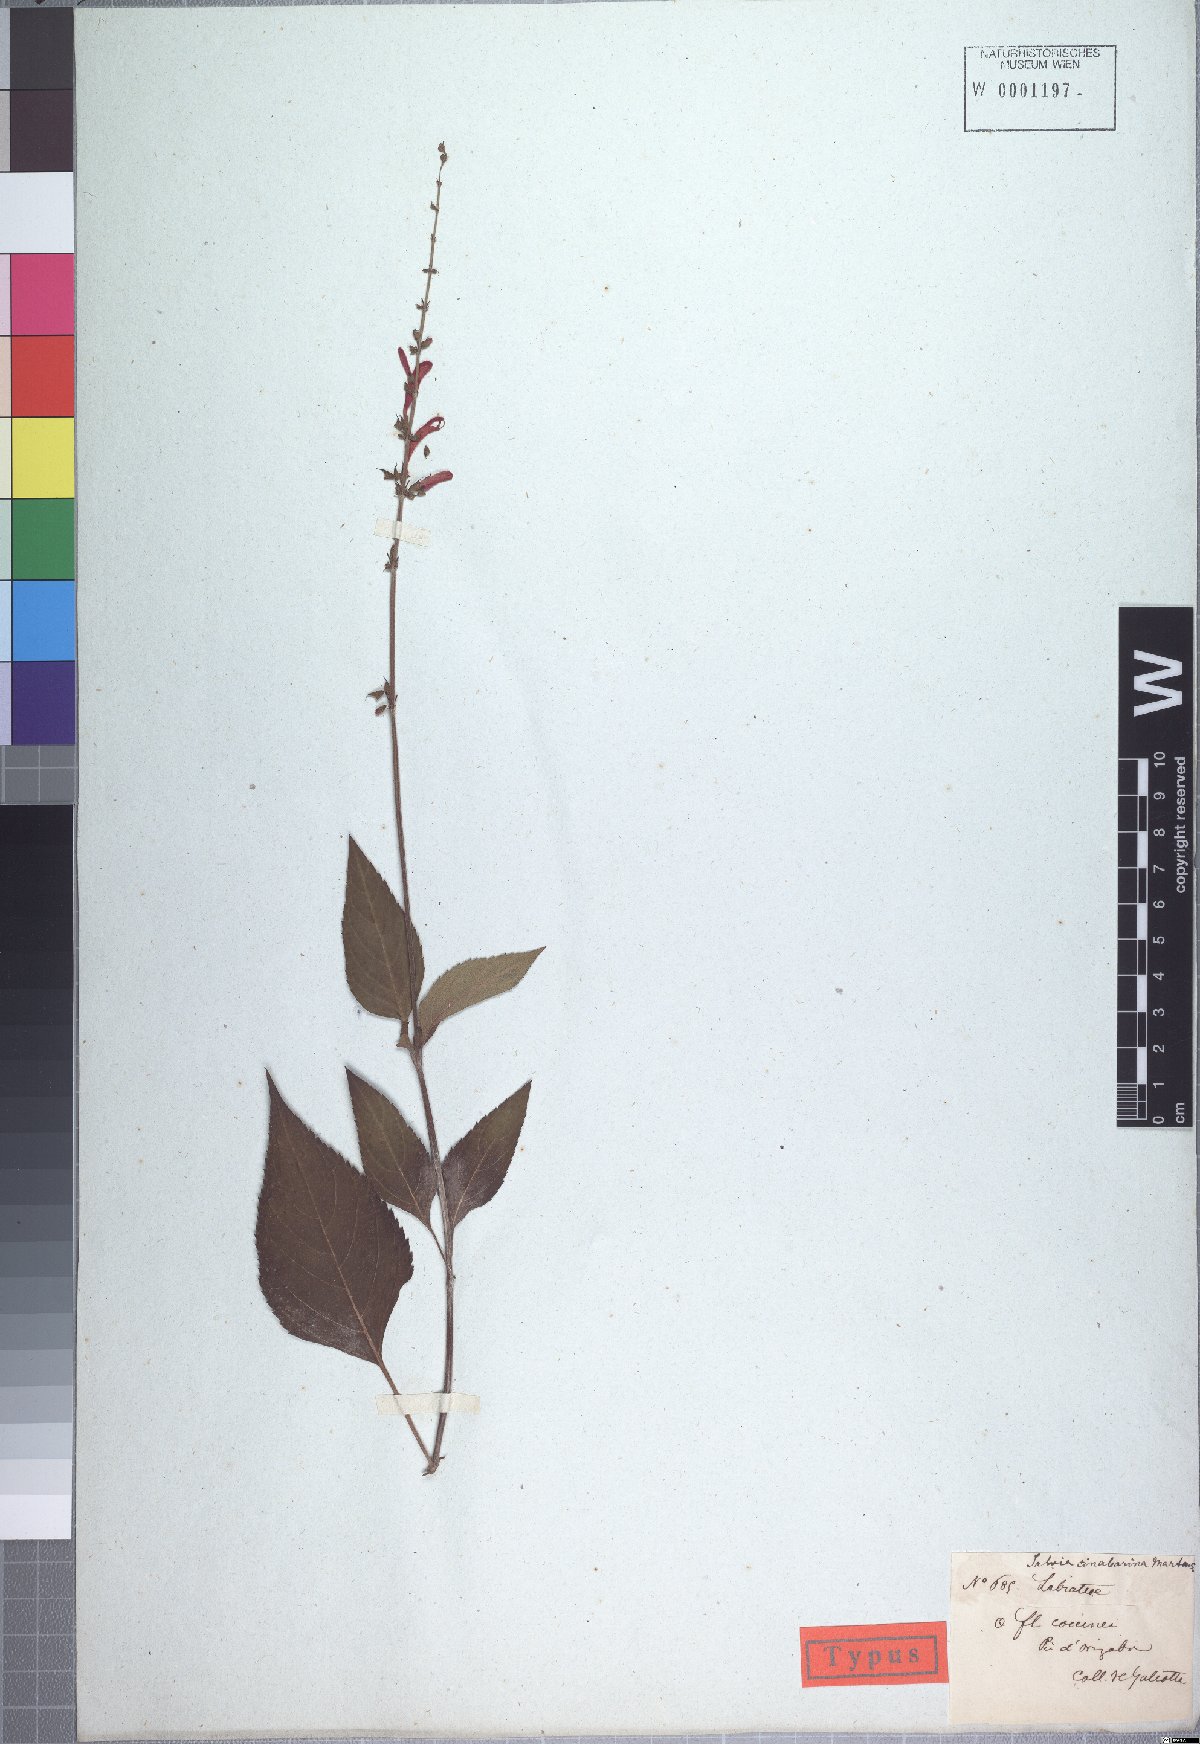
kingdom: Plantae
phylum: Tracheophyta
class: Magnoliopsida
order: Lamiales
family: Lamiaceae
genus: Salvia
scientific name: Salvia elegans
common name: Pineapple sage
